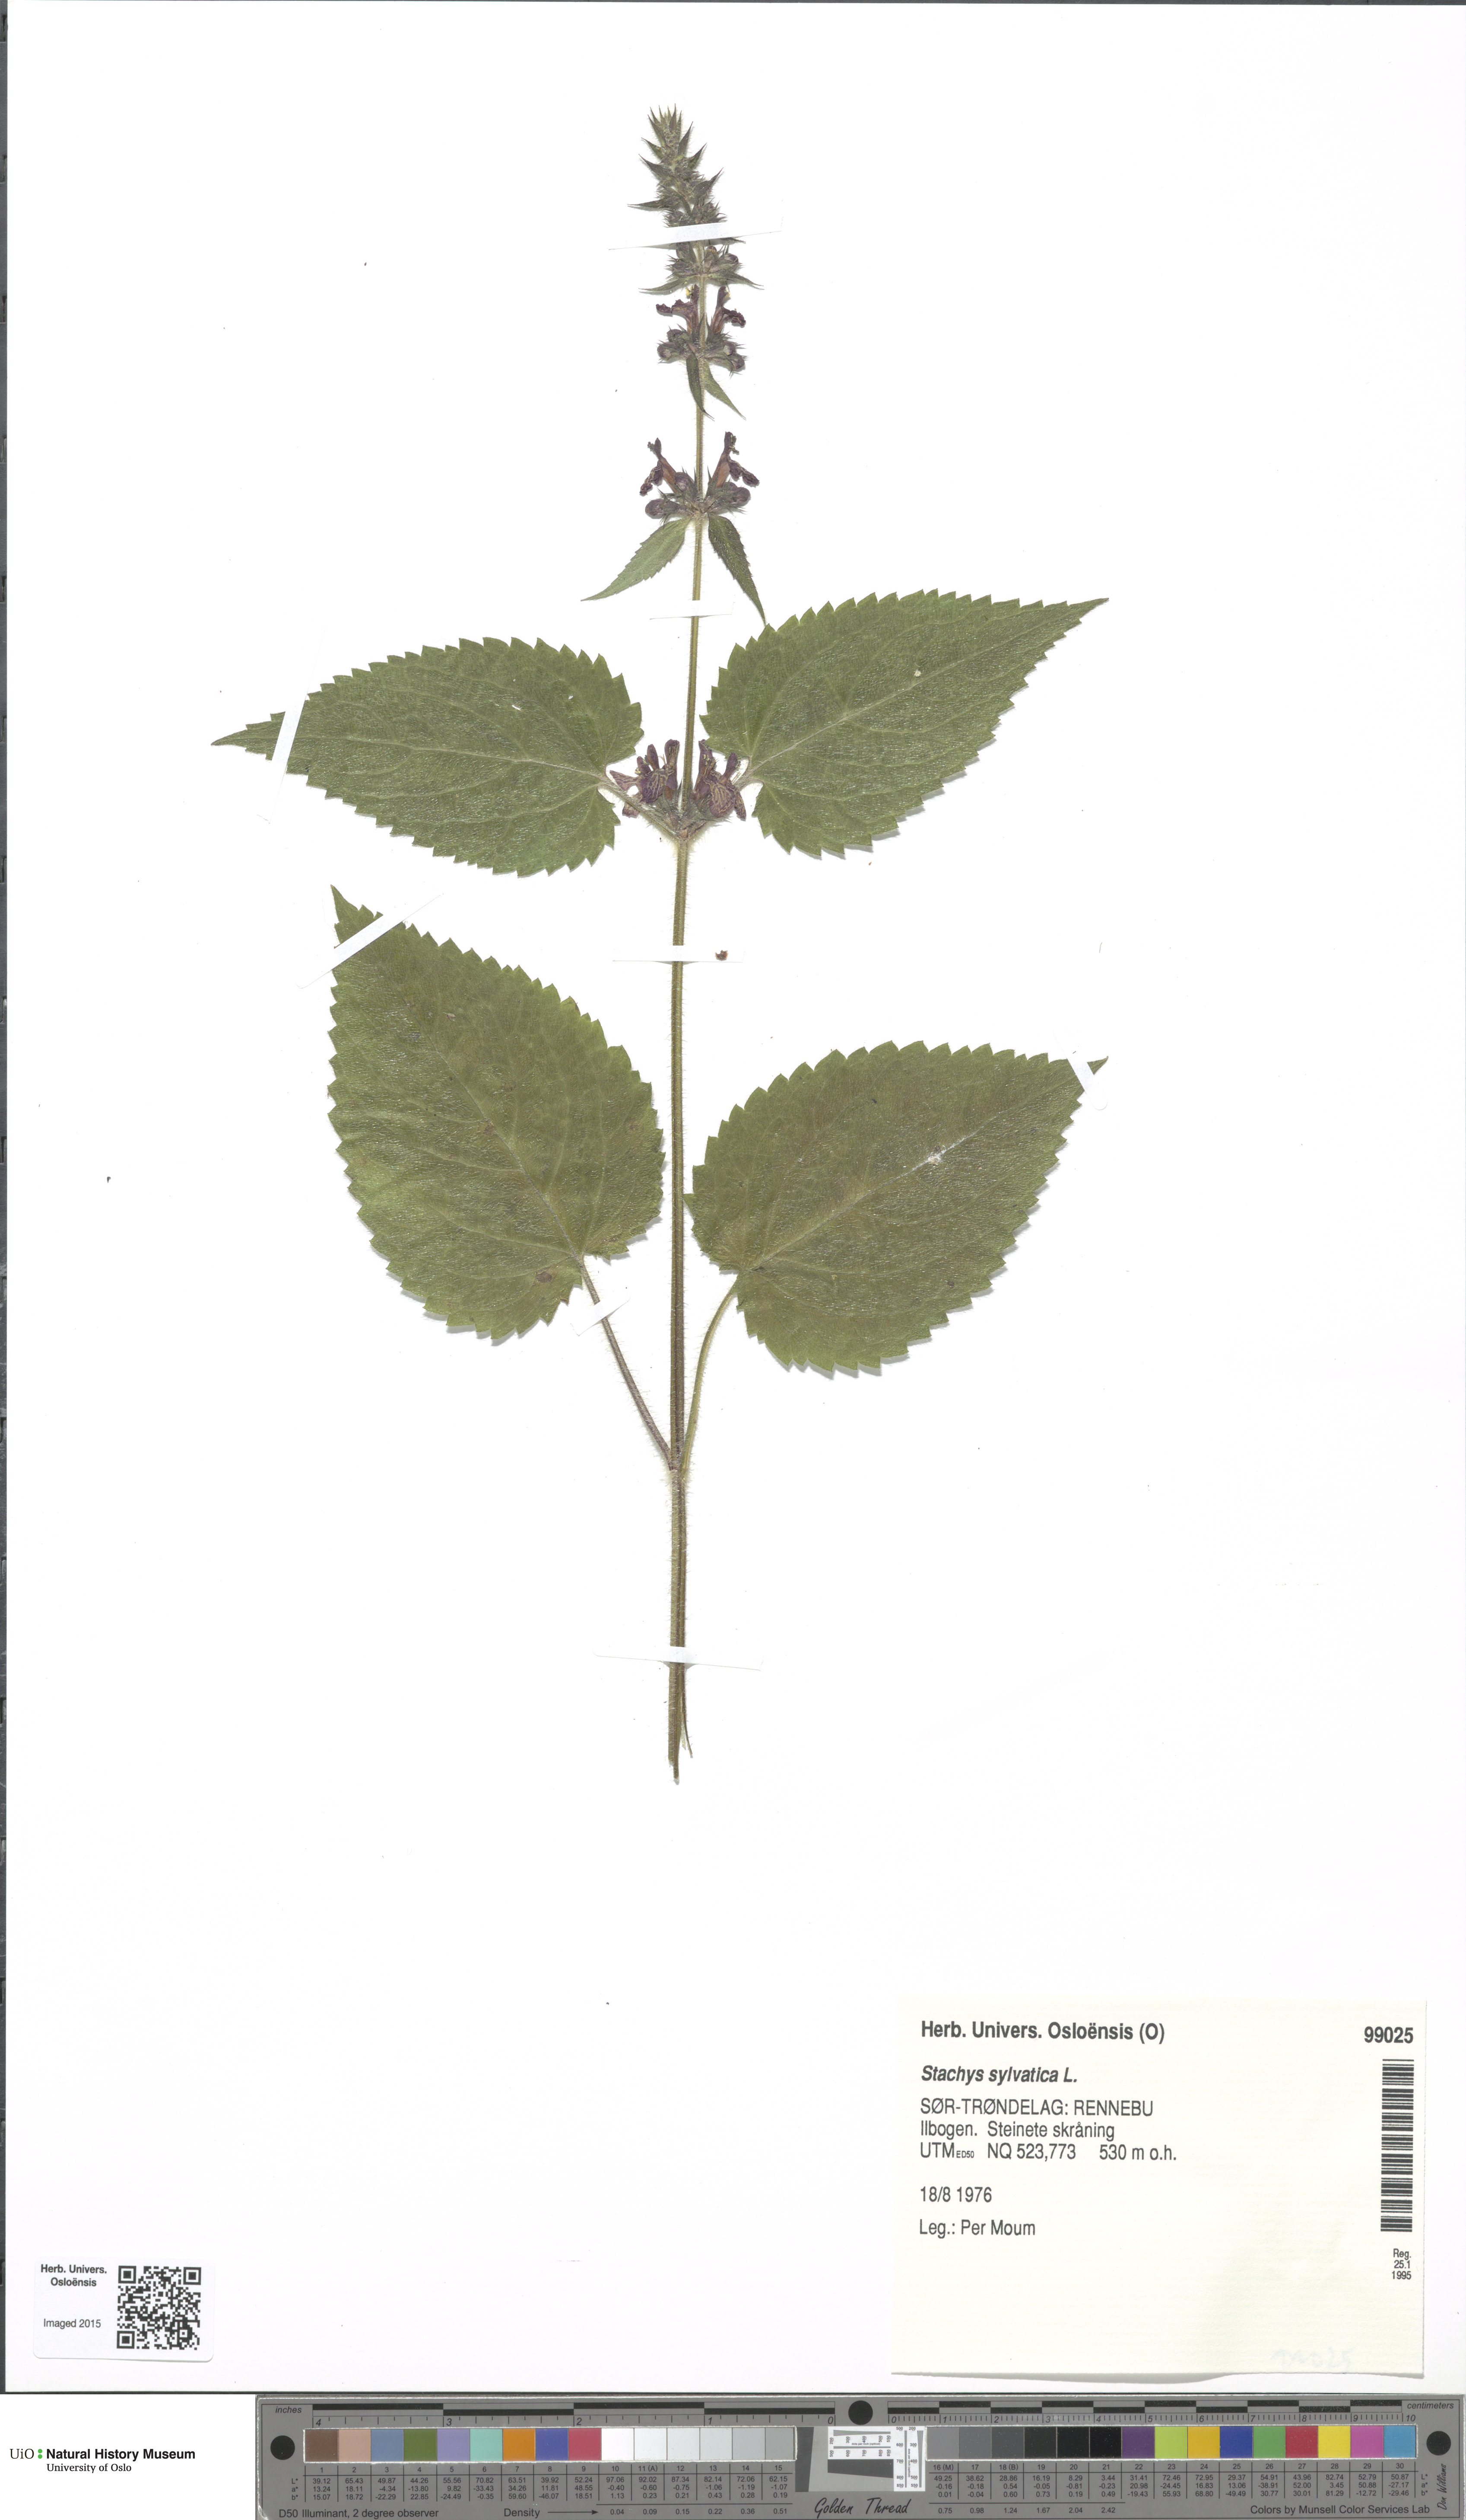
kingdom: Plantae
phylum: Tracheophyta
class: Magnoliopsida
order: Lamiales
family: Lamiaceae
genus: Stachys
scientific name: Stachys sylvatica
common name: Hedge woundwort
